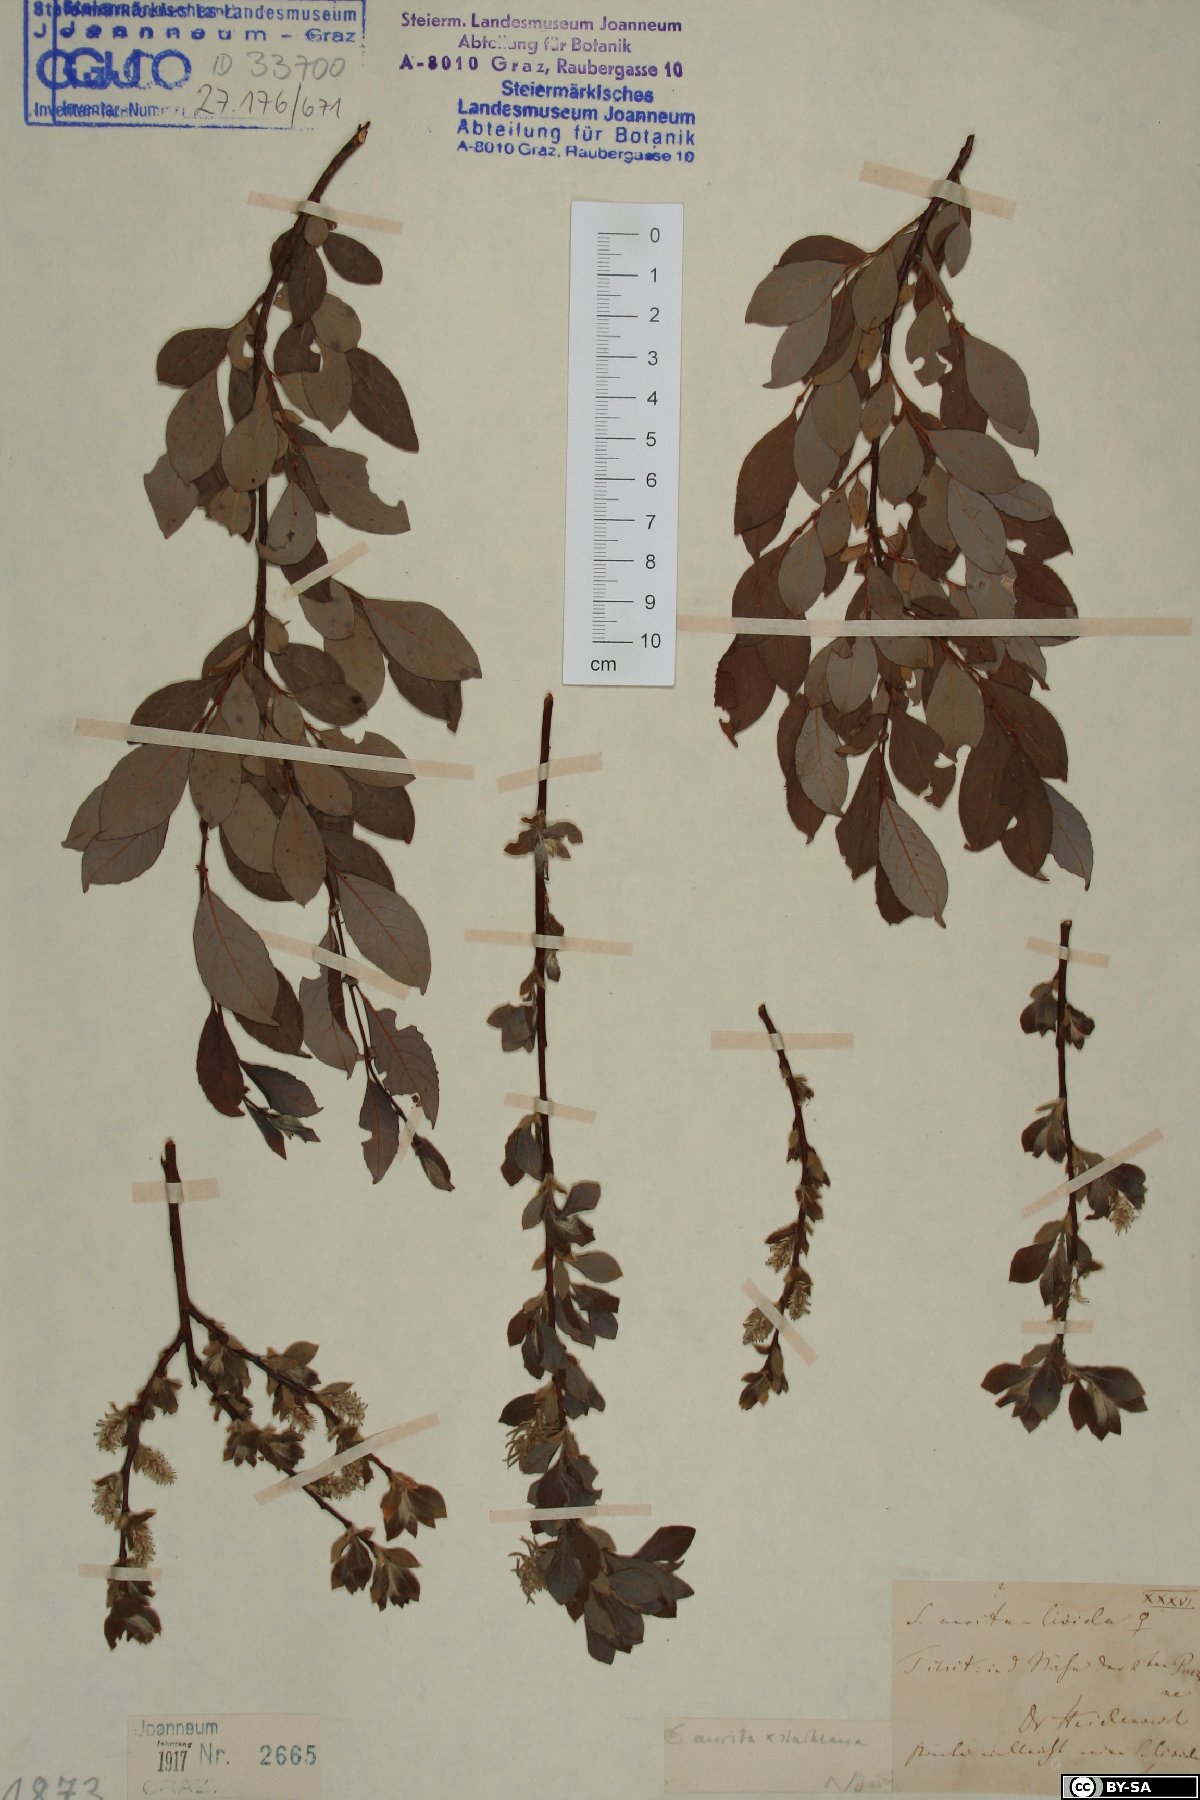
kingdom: Plantae
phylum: Tracheophyta
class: Magnoliopsida
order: Malpighiales
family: Salicaceae
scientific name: Salicaceae
